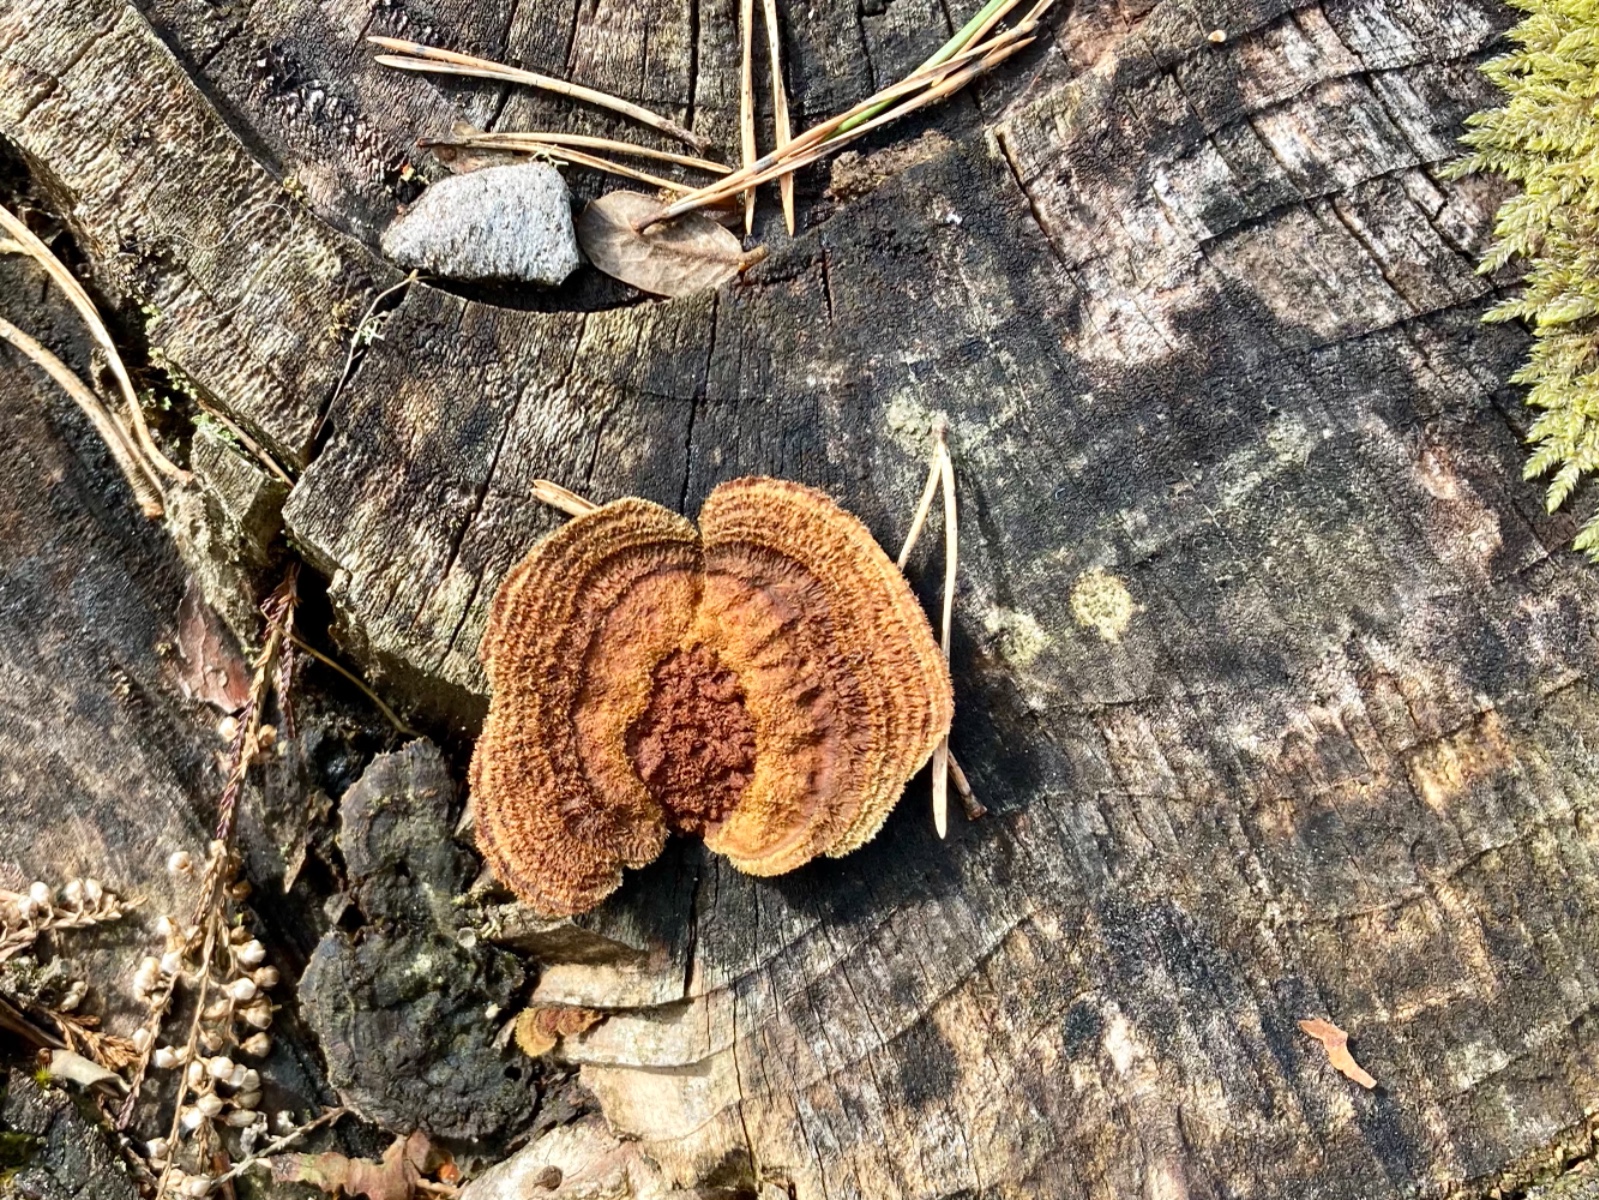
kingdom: Fungi
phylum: Basidiomycota
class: Agaricomycetes
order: Gloeophyllales
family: Gloeophyllaceae
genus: Gloeophyllum
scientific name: Gloeophyllum sepiarium
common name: fyrre-korkhat
